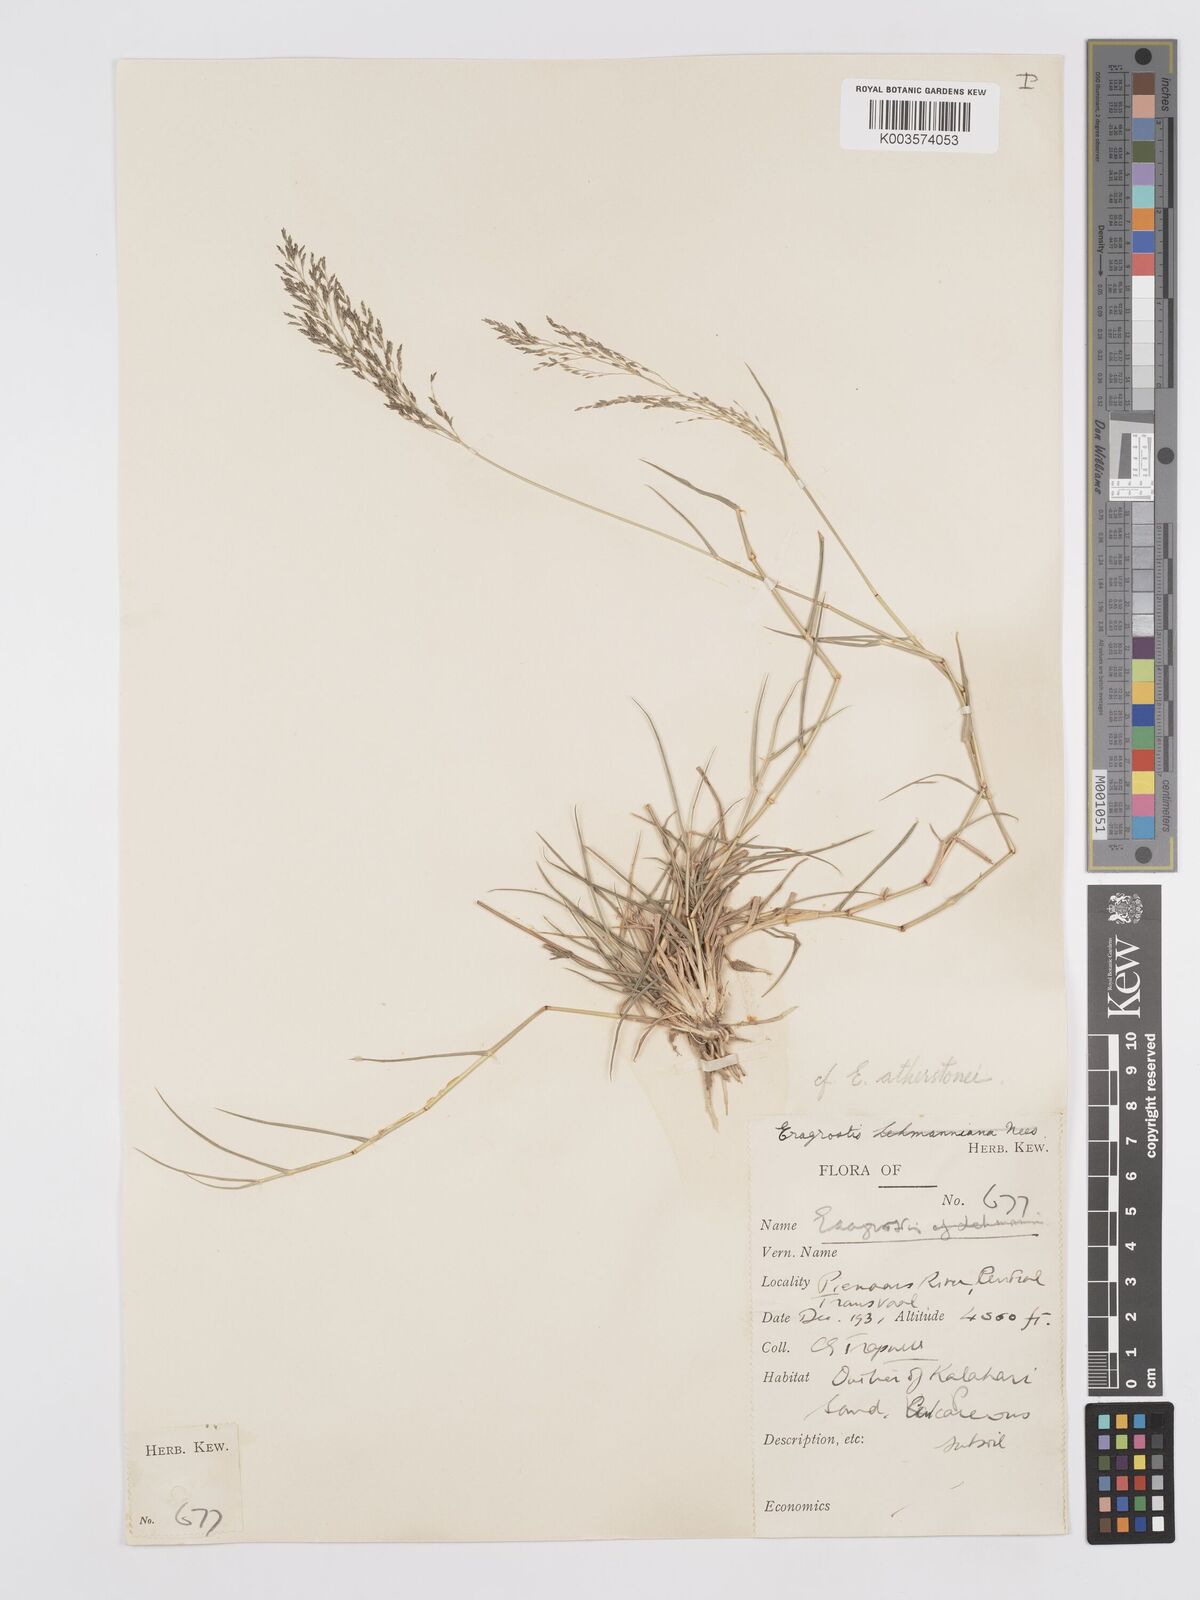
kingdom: Plantae
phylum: Tracheophyta
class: Liliopsida
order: Poales
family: Poaceae
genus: Eragrostis
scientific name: Eragrostis cylindriflora
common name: Cylinderflower lovegrass
